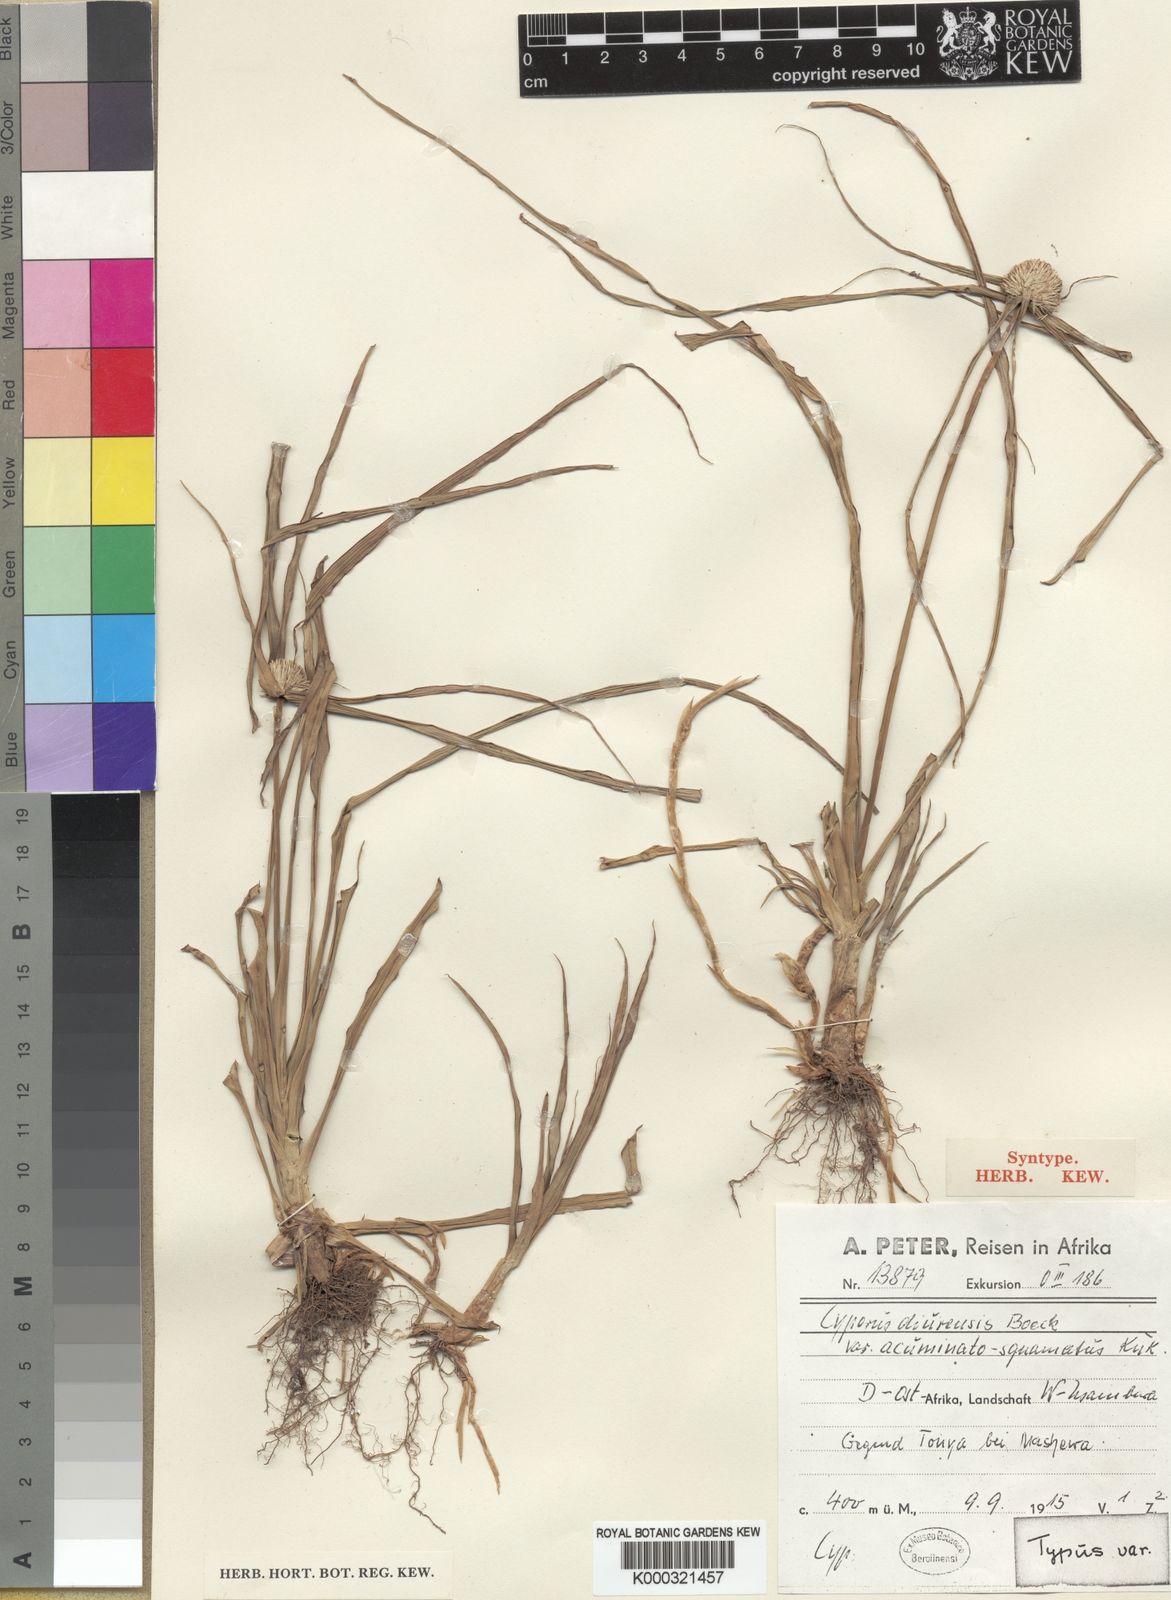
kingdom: Plantae
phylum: Tracheophyta
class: Liliopsida
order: Poales
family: Cyperaceae
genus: Cyperus
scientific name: Cyperus diurensis
